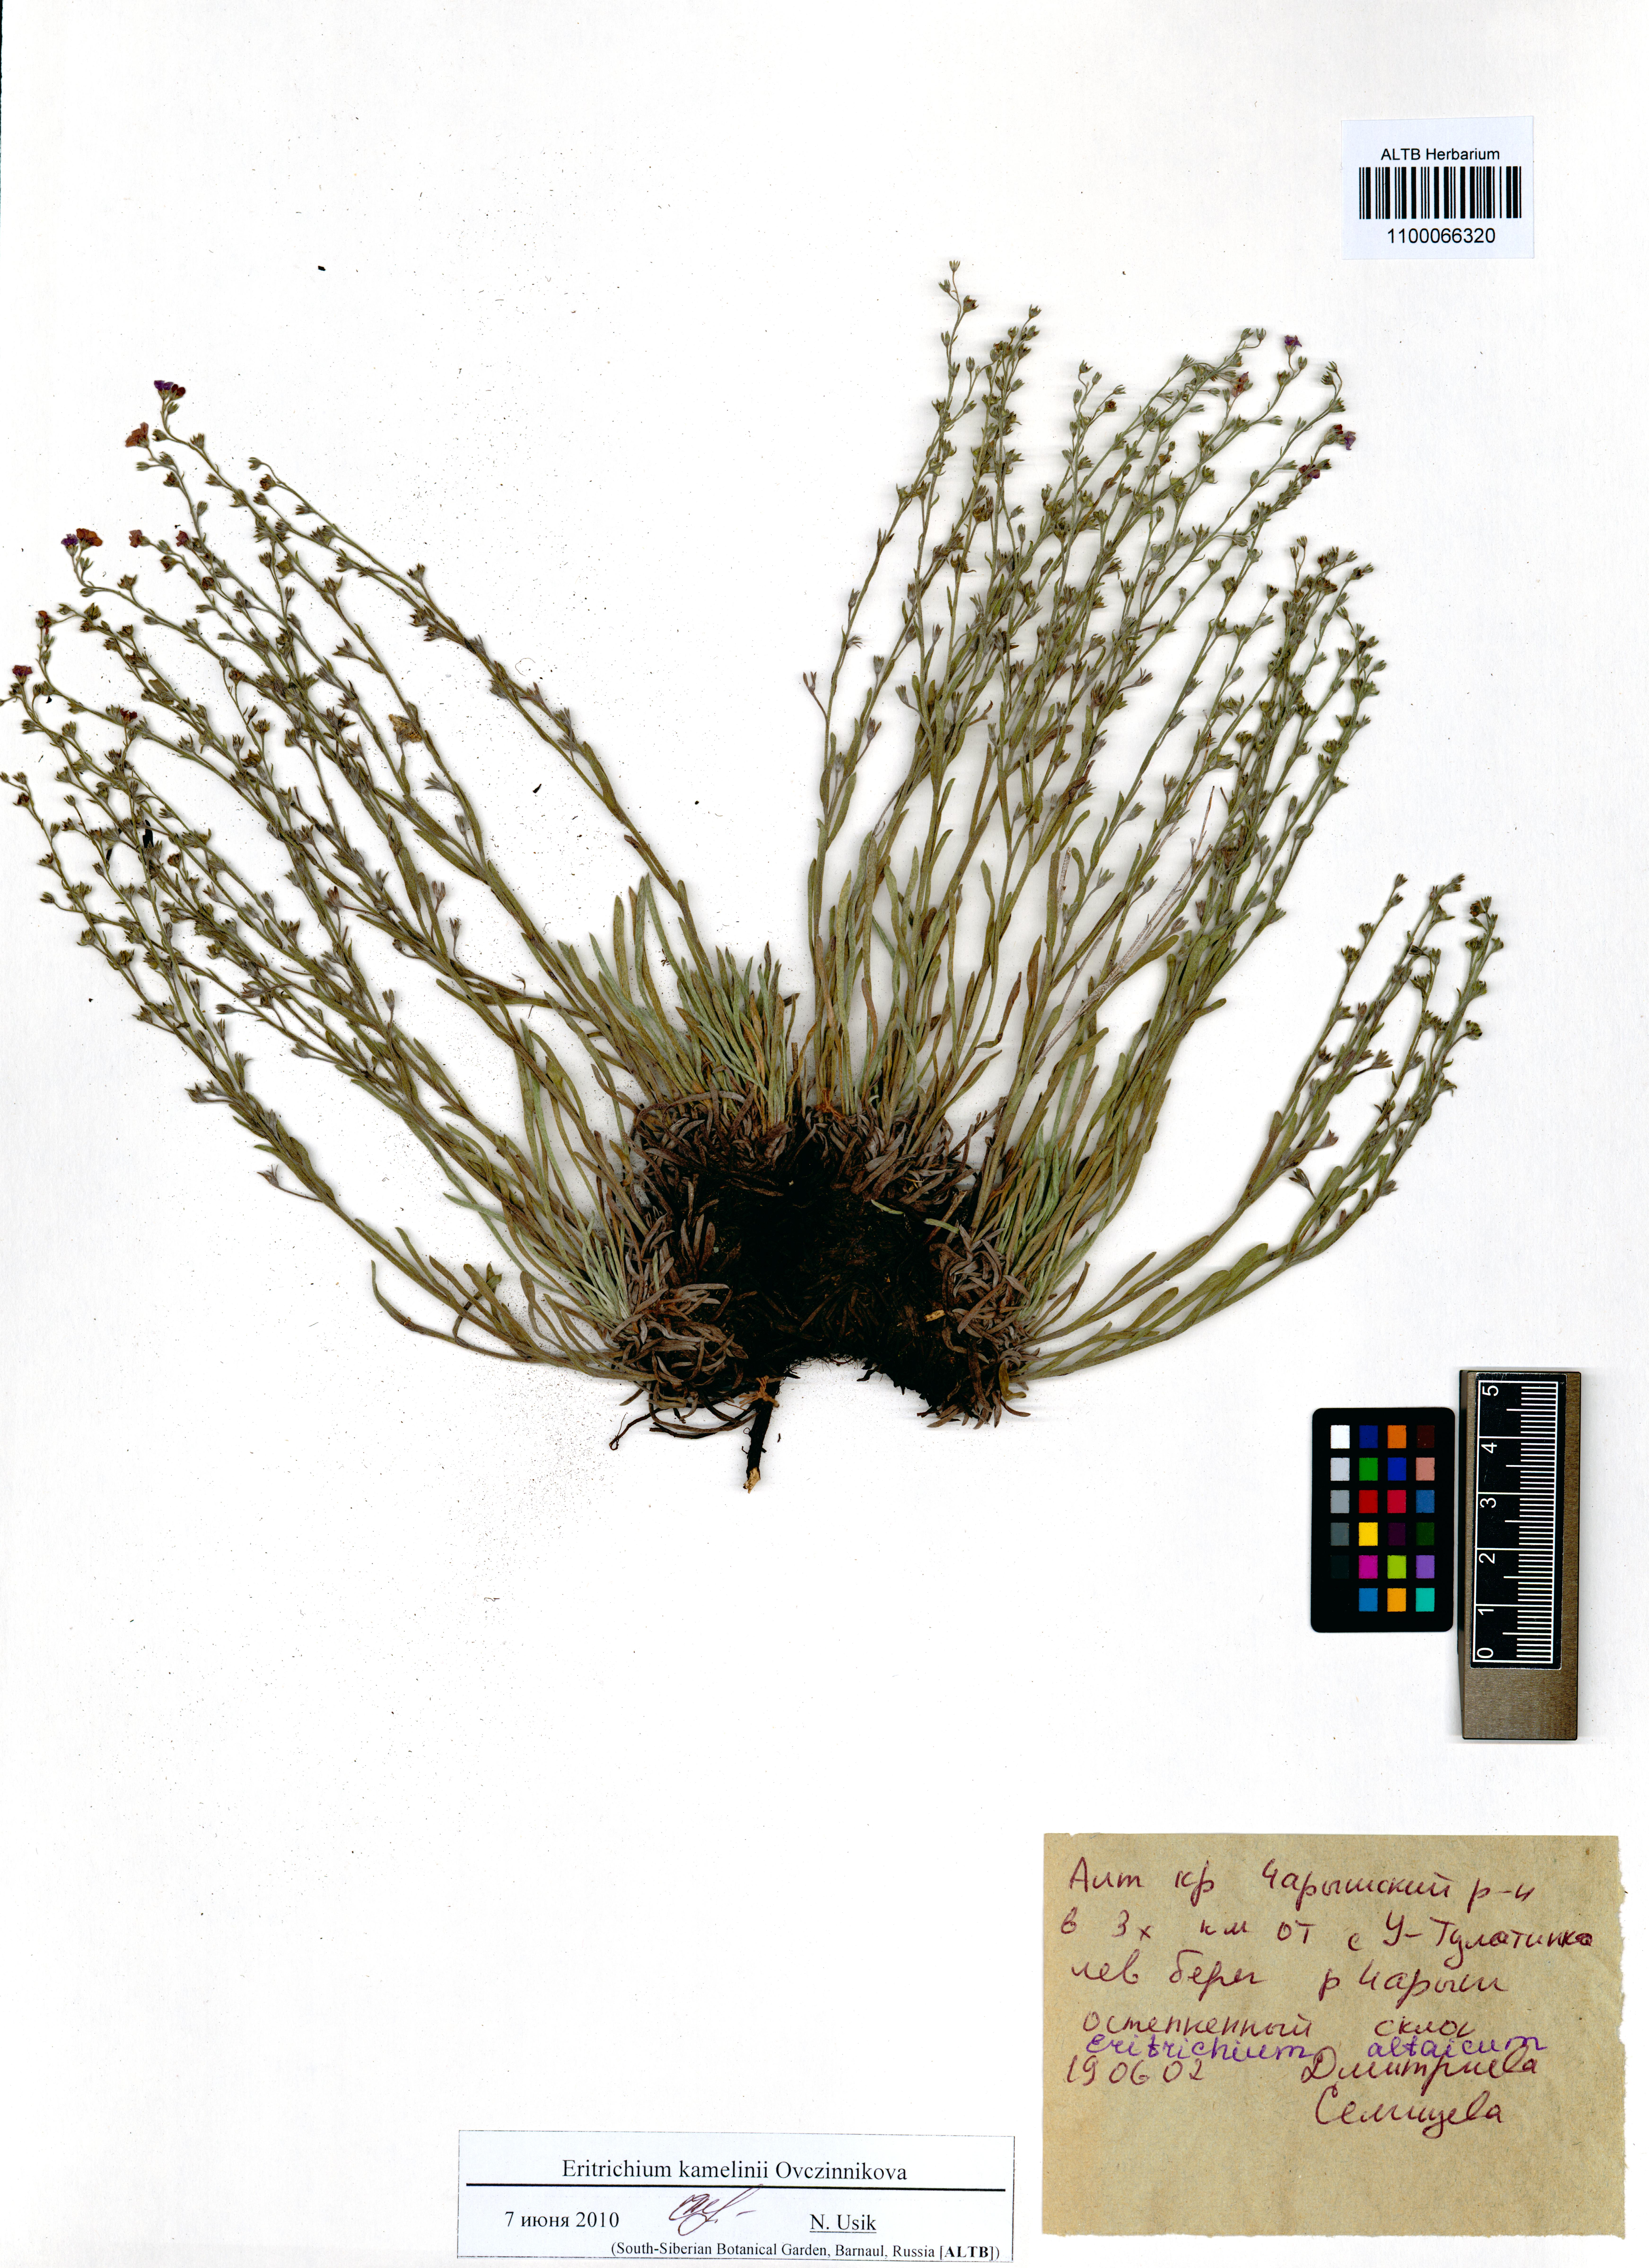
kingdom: Plantae
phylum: Tracheophyta
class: Magnoliopsida
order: Boraginales
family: Boraginaceae
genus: Eritrichium
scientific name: Eritrichium kamelinii
